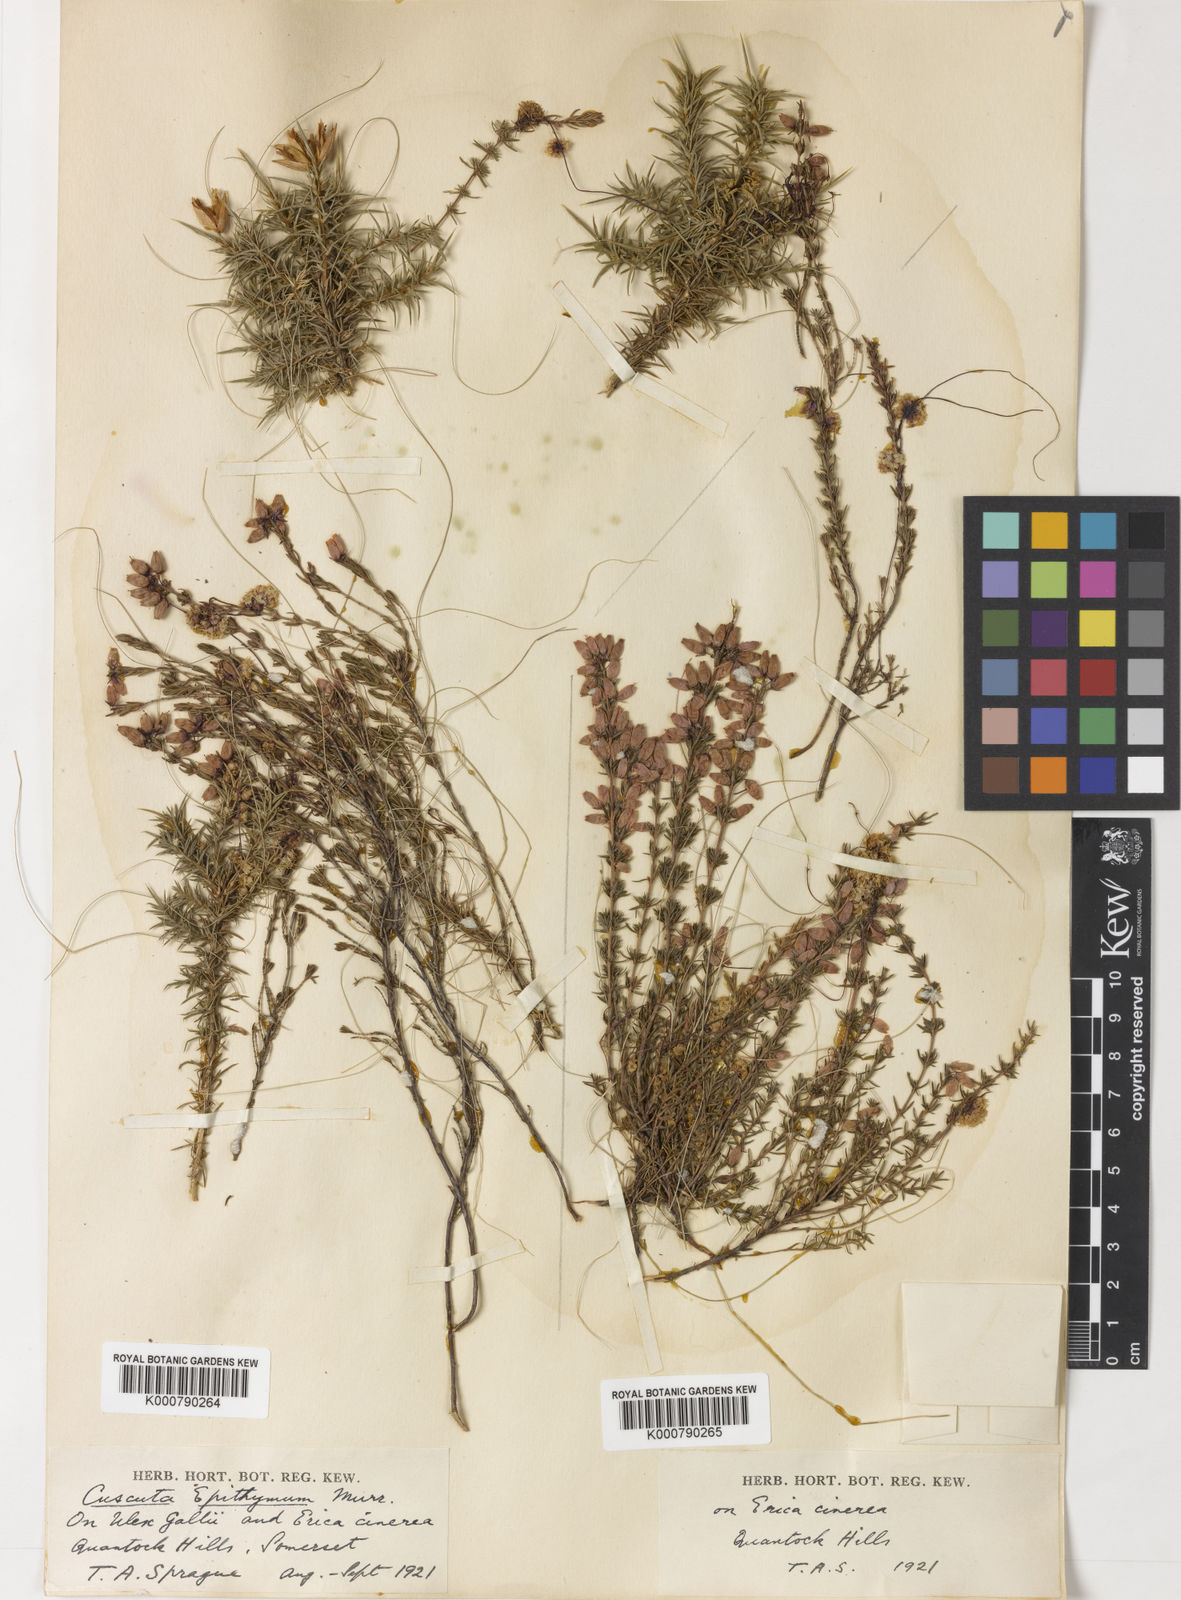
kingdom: Plantae
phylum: Tracheophyta
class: Magnoliopsida
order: Solanales
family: Convolvulaceae
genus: Cuscuta
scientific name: Cuscuta epithymum
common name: Clover dodder
